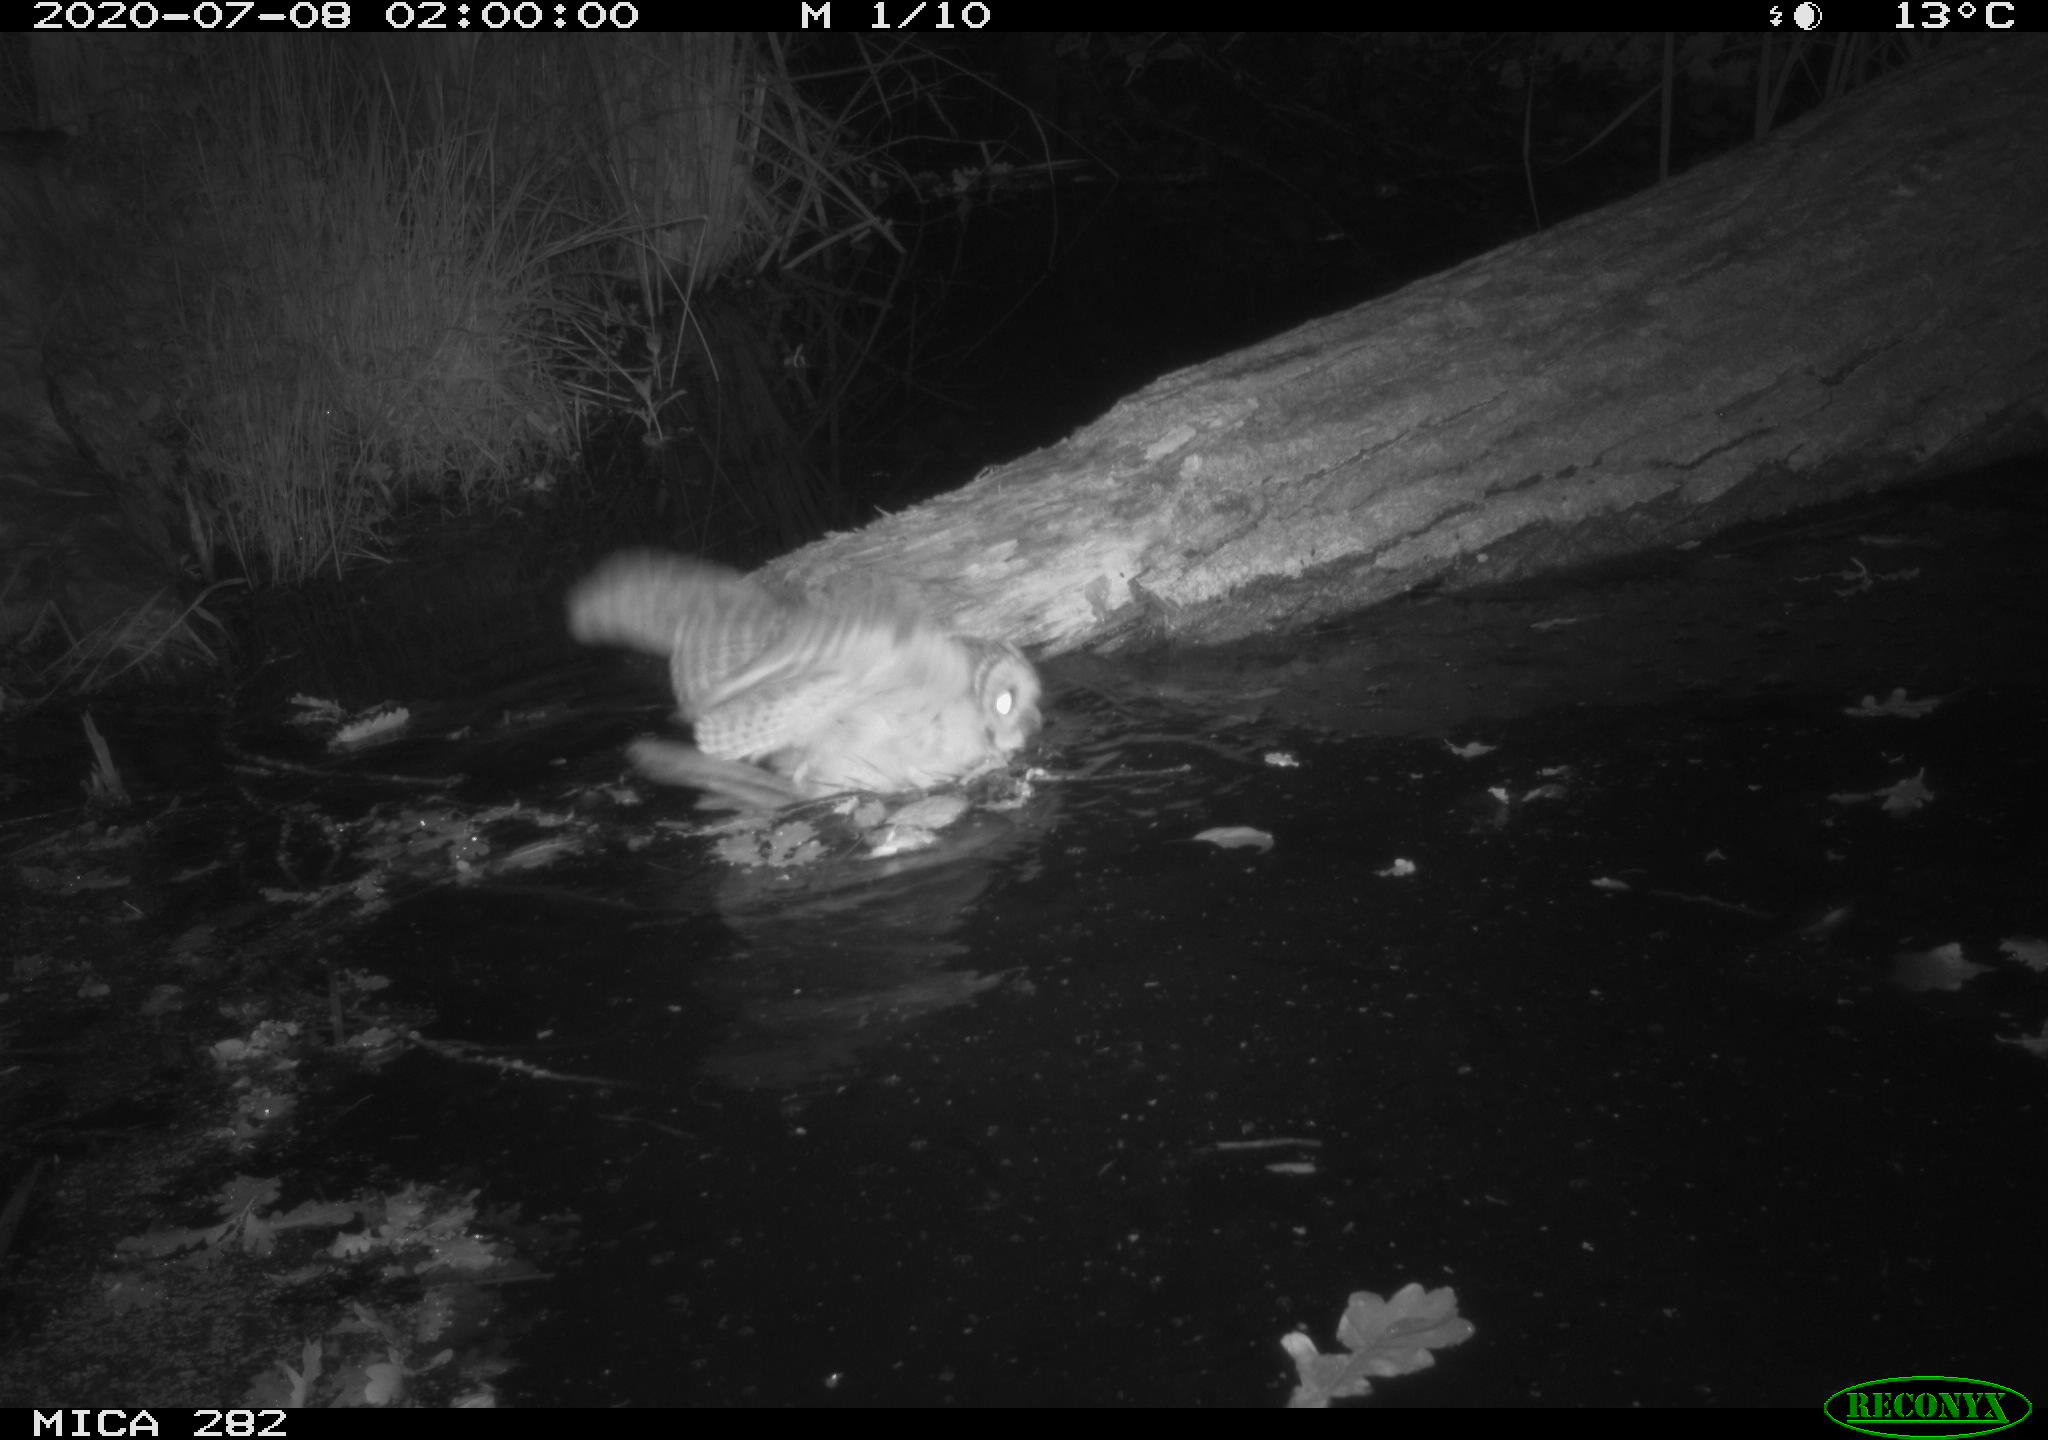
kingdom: Animalia
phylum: Chordata
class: Aves
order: Strigiformes
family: Strigidae
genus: Strix
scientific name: Strix aluco
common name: Tawny owl
